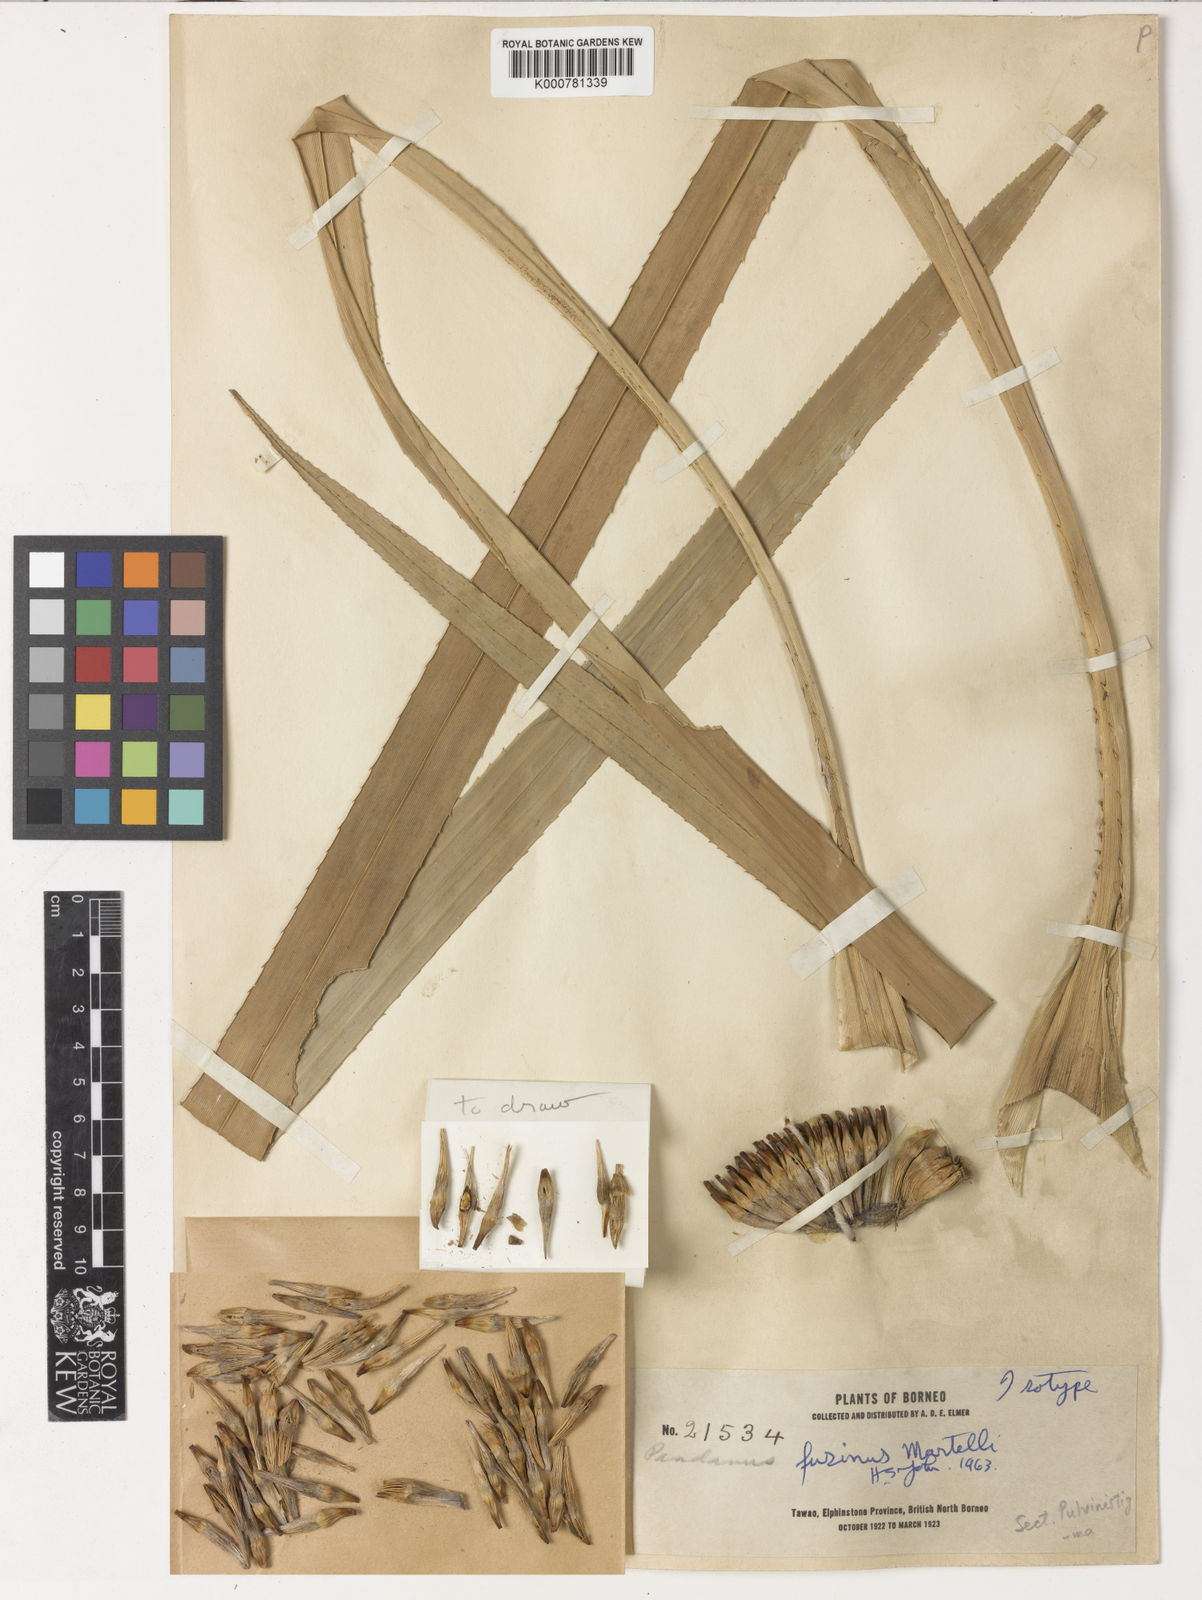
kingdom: Plantae
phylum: Tracheophyta
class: Liliopsida
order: Pandanales
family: Pandanaceae
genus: Pandanus
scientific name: Pandanus fusinus
